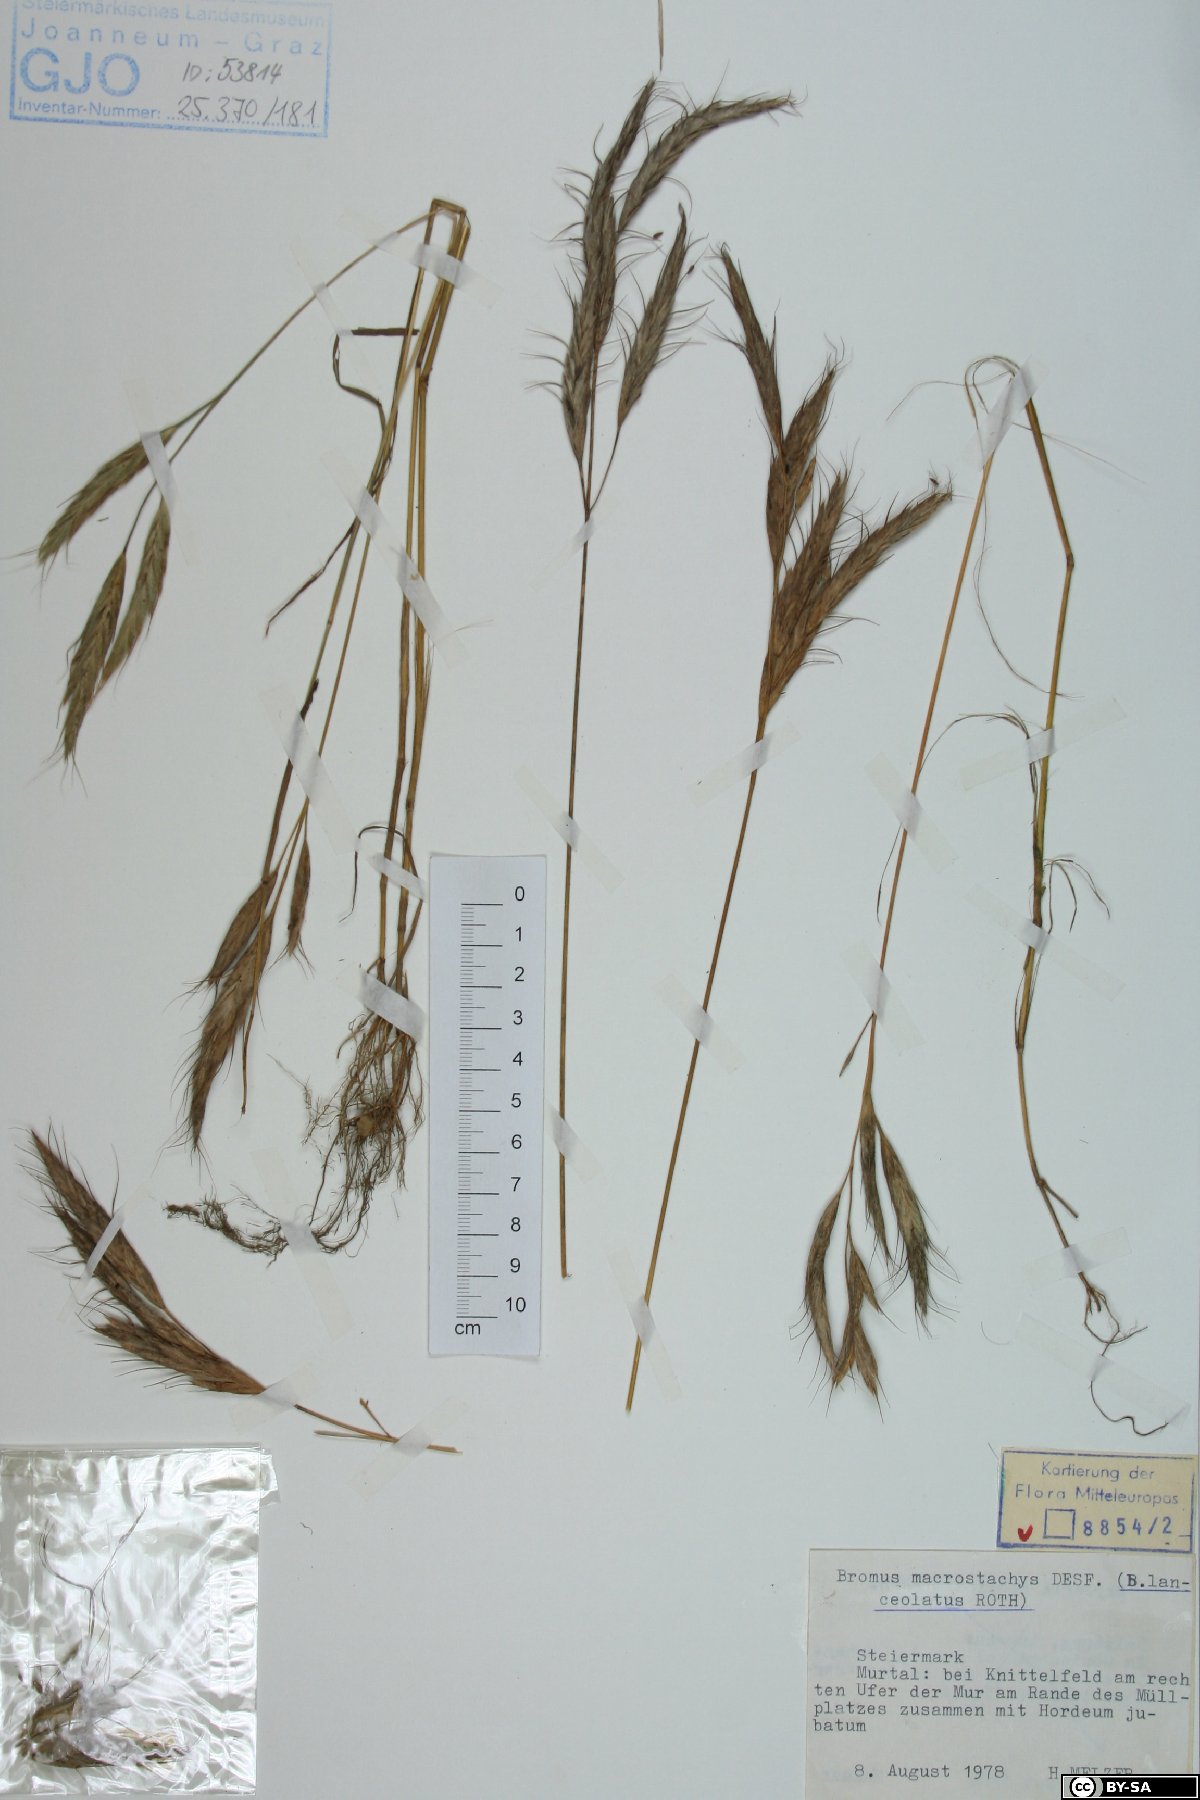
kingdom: Plantae
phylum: Tracheophyta
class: Liliopsida
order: Poales
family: Poaceae
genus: Bromus
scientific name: Bromus lanceolatus
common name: Mediterranean brome
